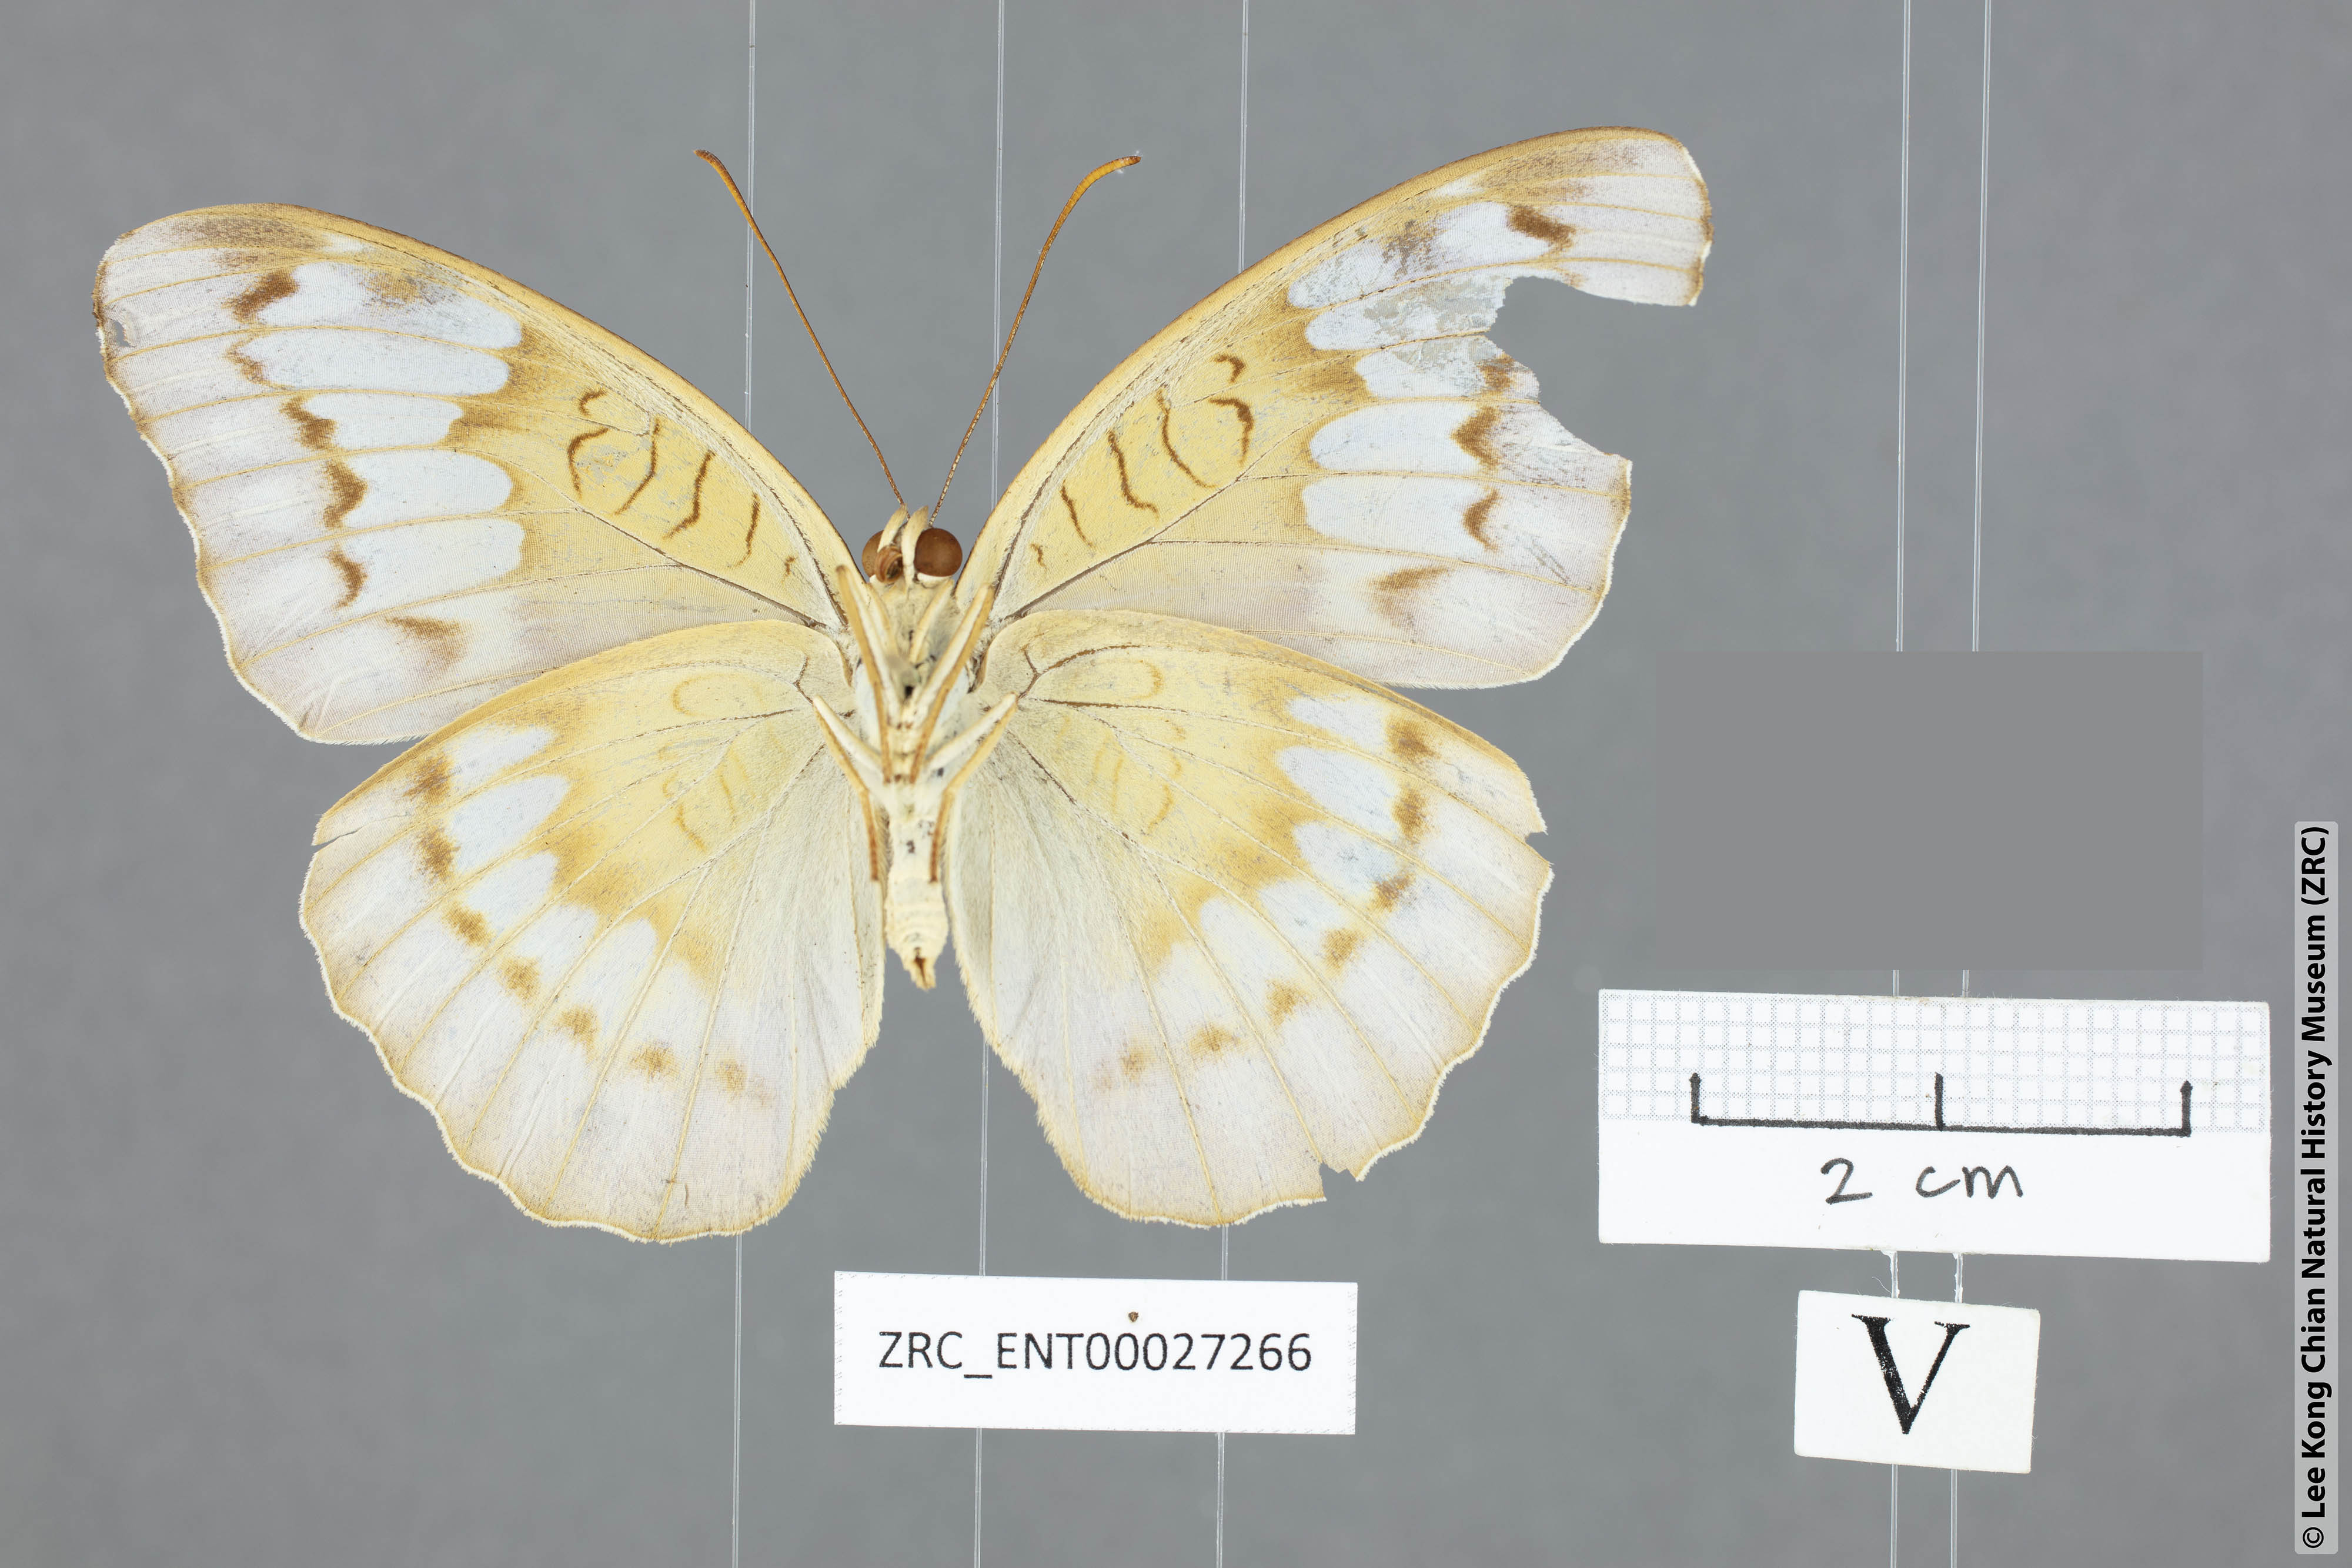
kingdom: Animalia
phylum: Arthropoda
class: Insecta
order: Lepidoptera
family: Nymphalidae
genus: Tanaecia
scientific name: Tanaecia clathrata
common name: Violet-bordered viscount
